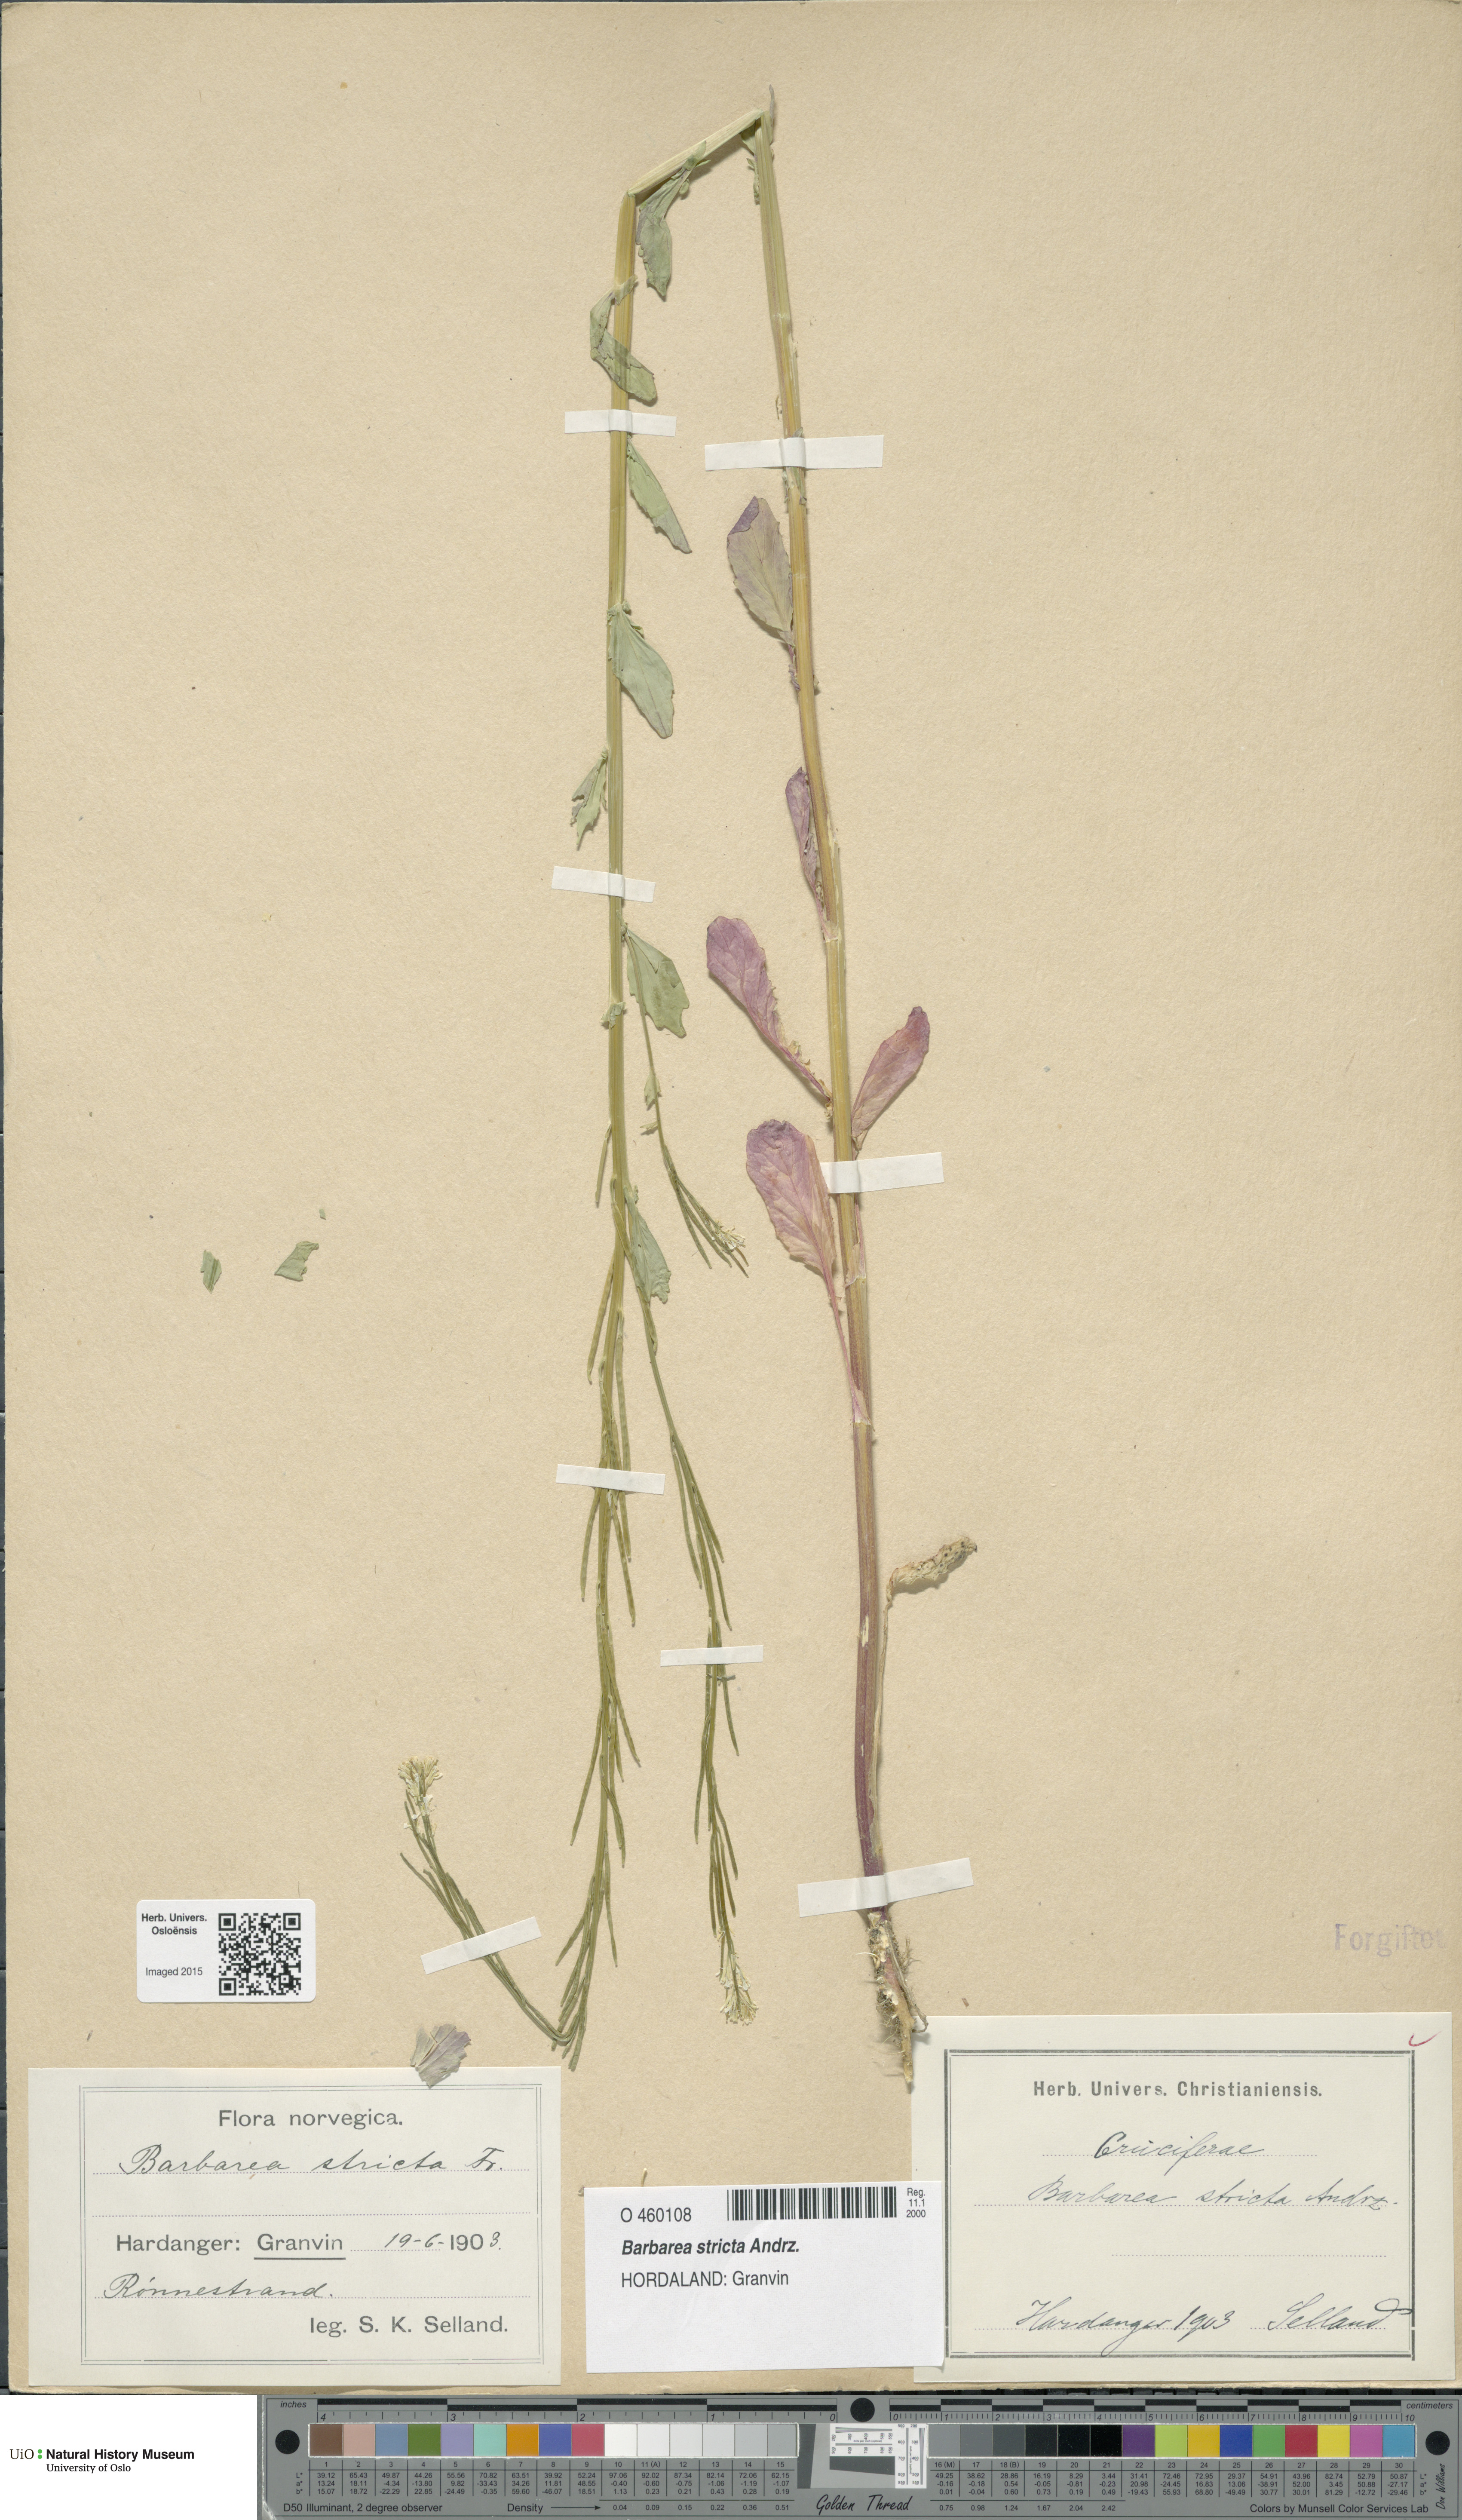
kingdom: Plantae
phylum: Tracheophyta
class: Magnoliopsida
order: Brassicales
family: Brassicaceae
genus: Barbarea
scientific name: Barbarea stricta
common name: Small-flowered winter-cress
